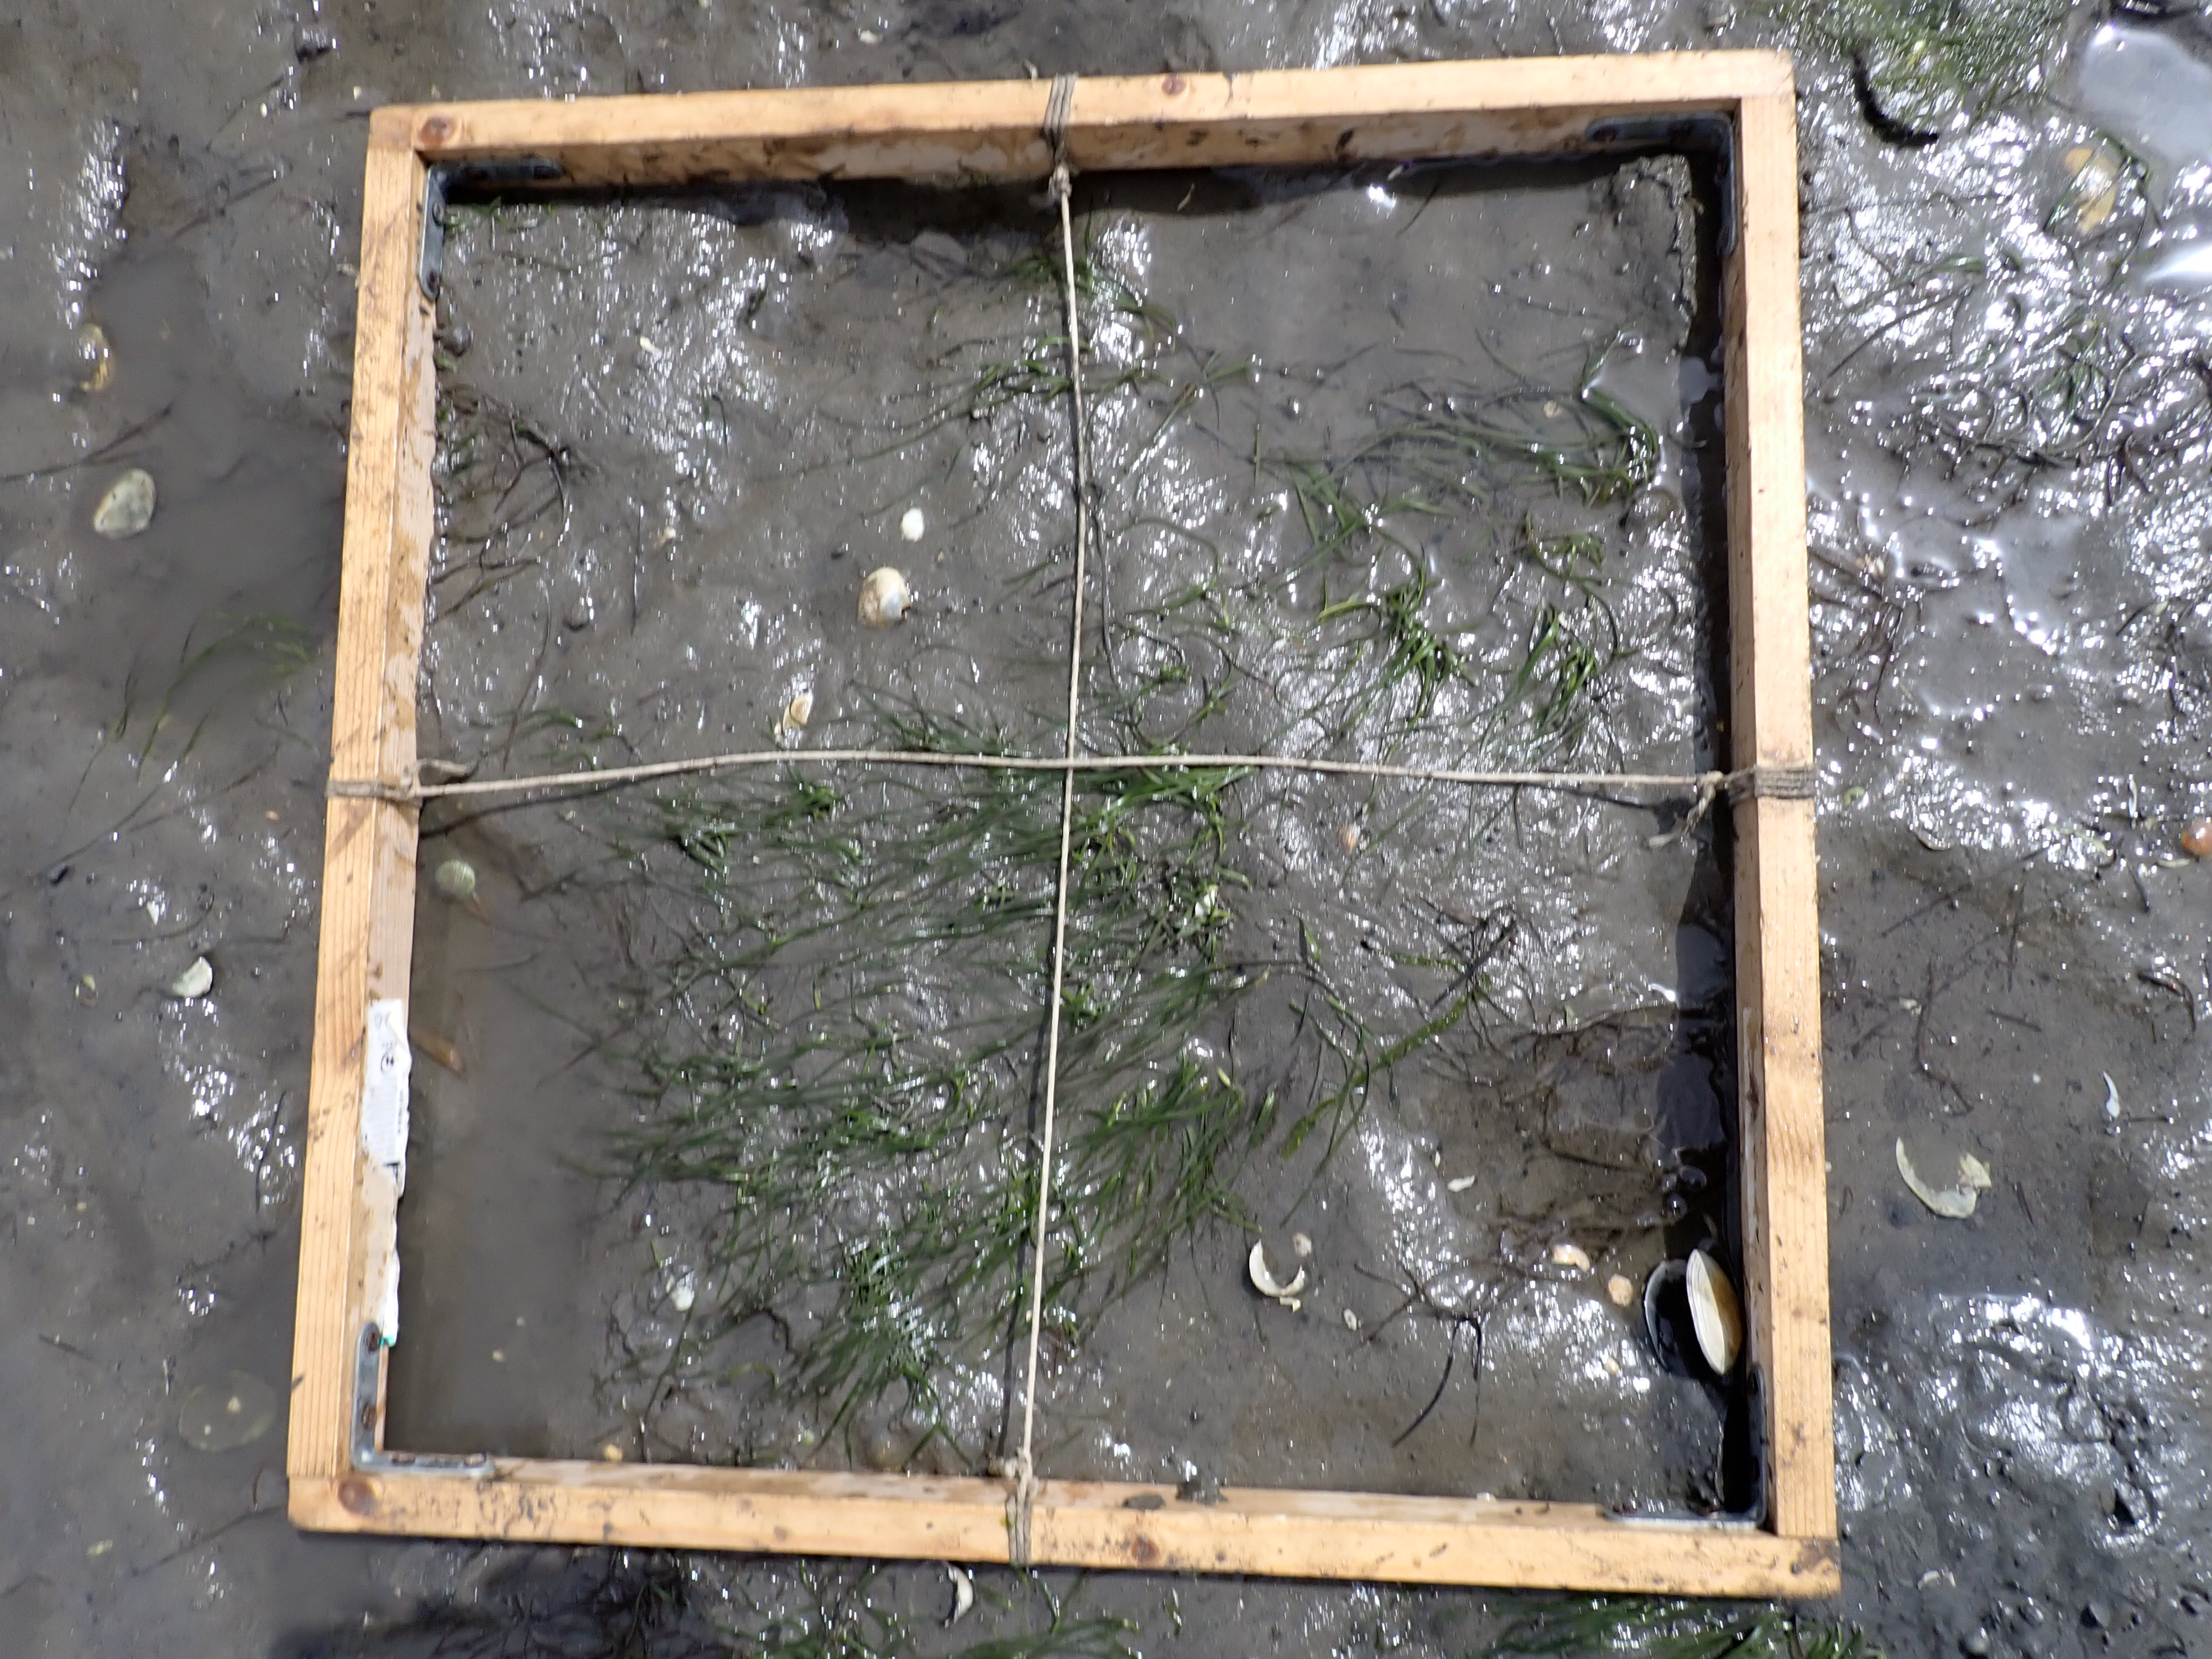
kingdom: Plantae
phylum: Tracheophyta
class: Liliopsida
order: Alismatales
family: Zosteraceae
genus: Zostera
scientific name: Zostera noltii
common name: Dwarf eelgrass
